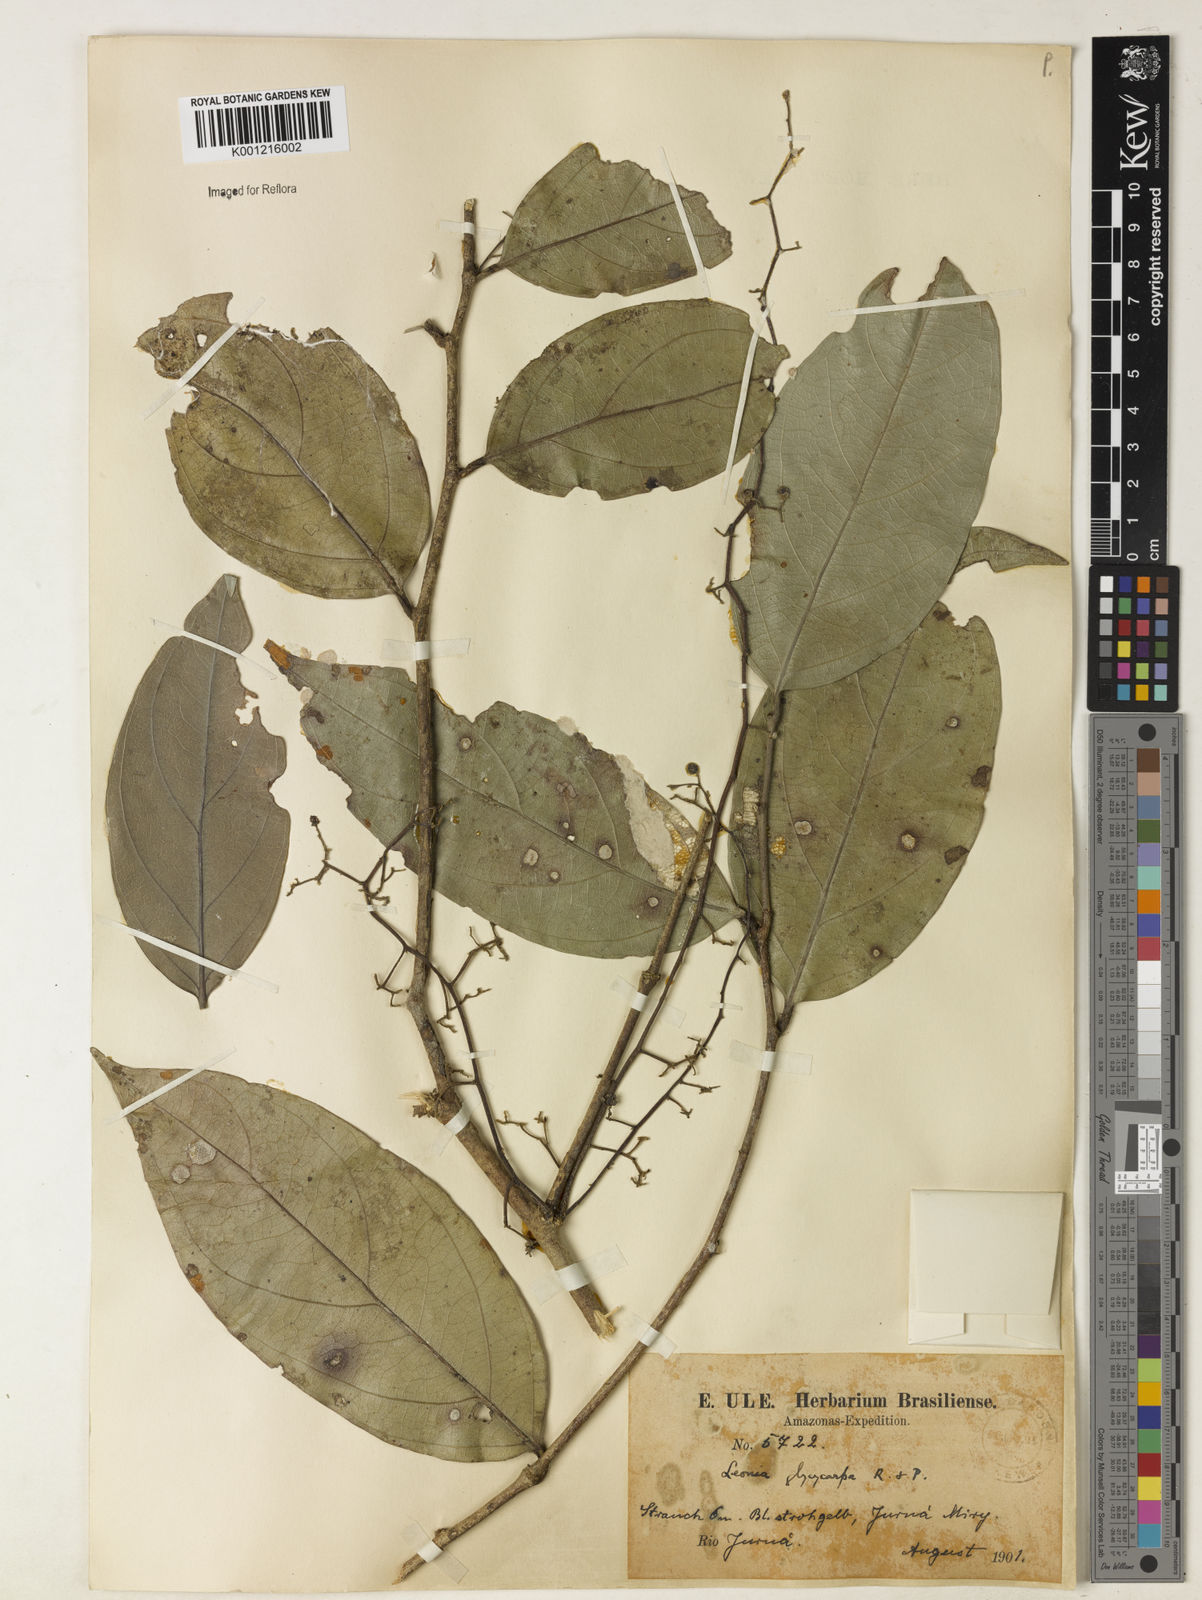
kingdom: Plantae
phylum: Tracheophyta
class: Magnoliopsida
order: Malpighiales
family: Violaceae
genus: Leonia
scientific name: Leonia glycycarpa
